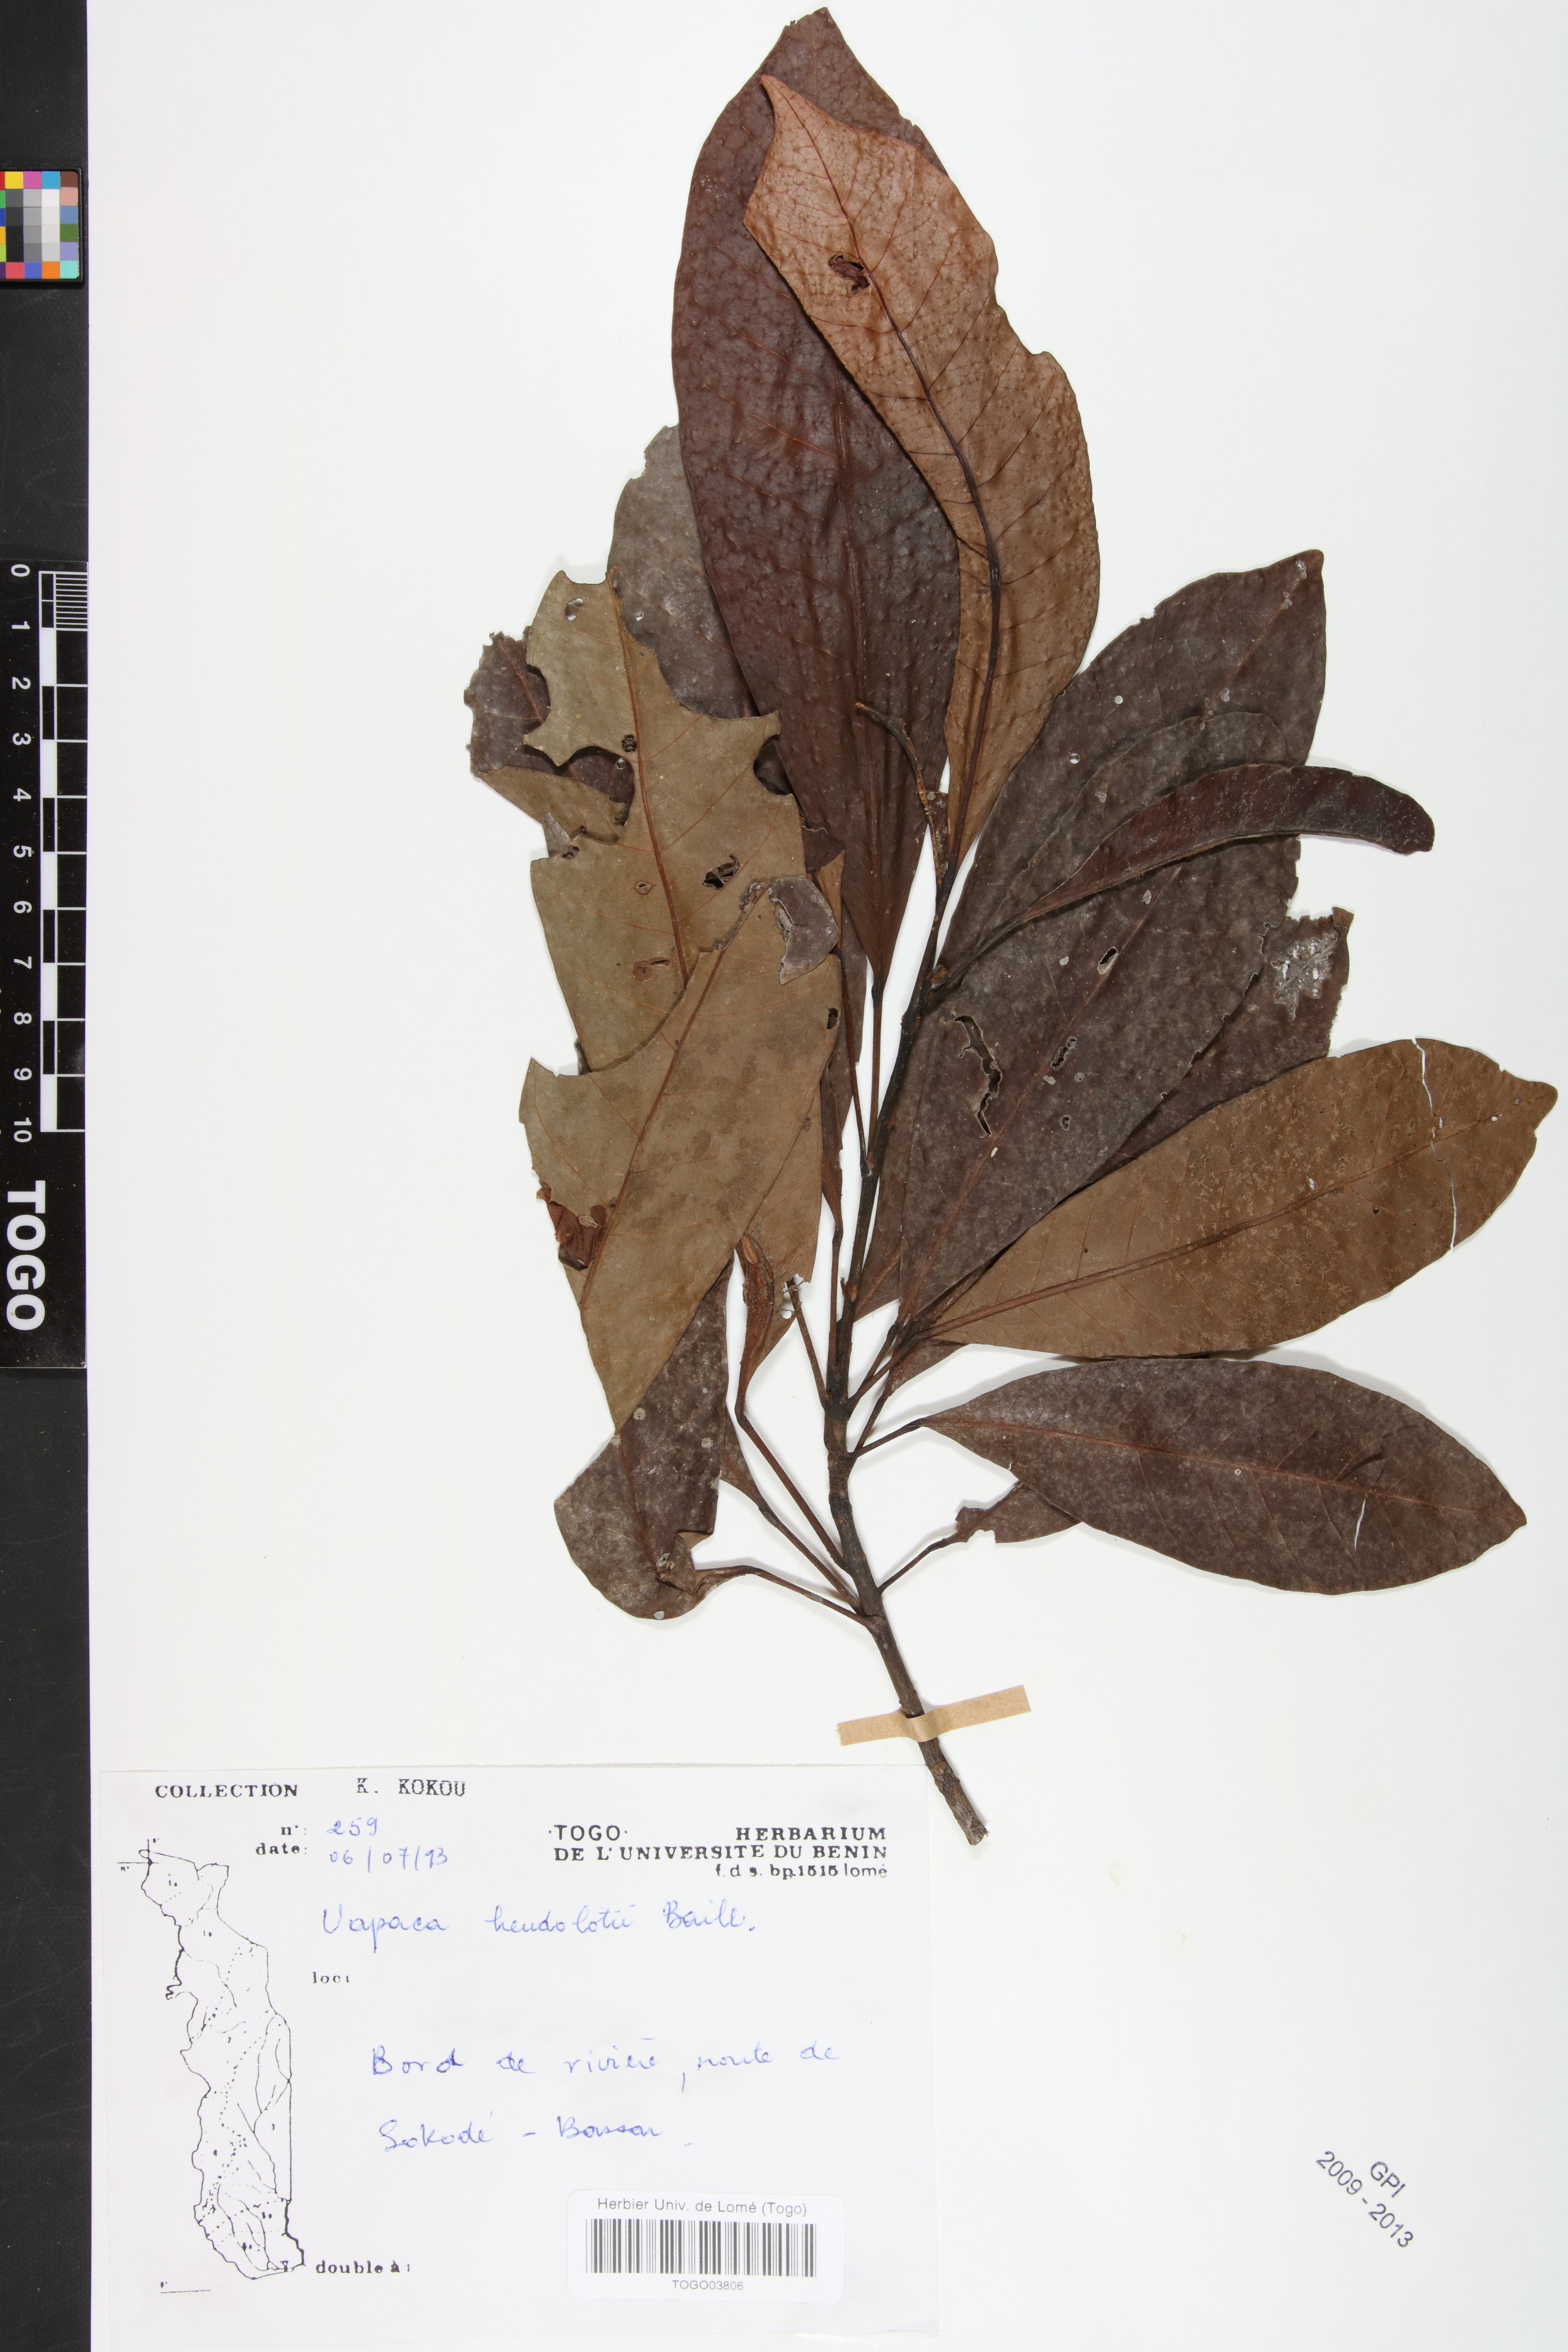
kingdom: Plantae
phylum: Tracheophyta
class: Magnoliopsida
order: Malpighiales
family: Phyllanthaceae
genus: Uapaca
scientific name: Uapaca heudelotii
